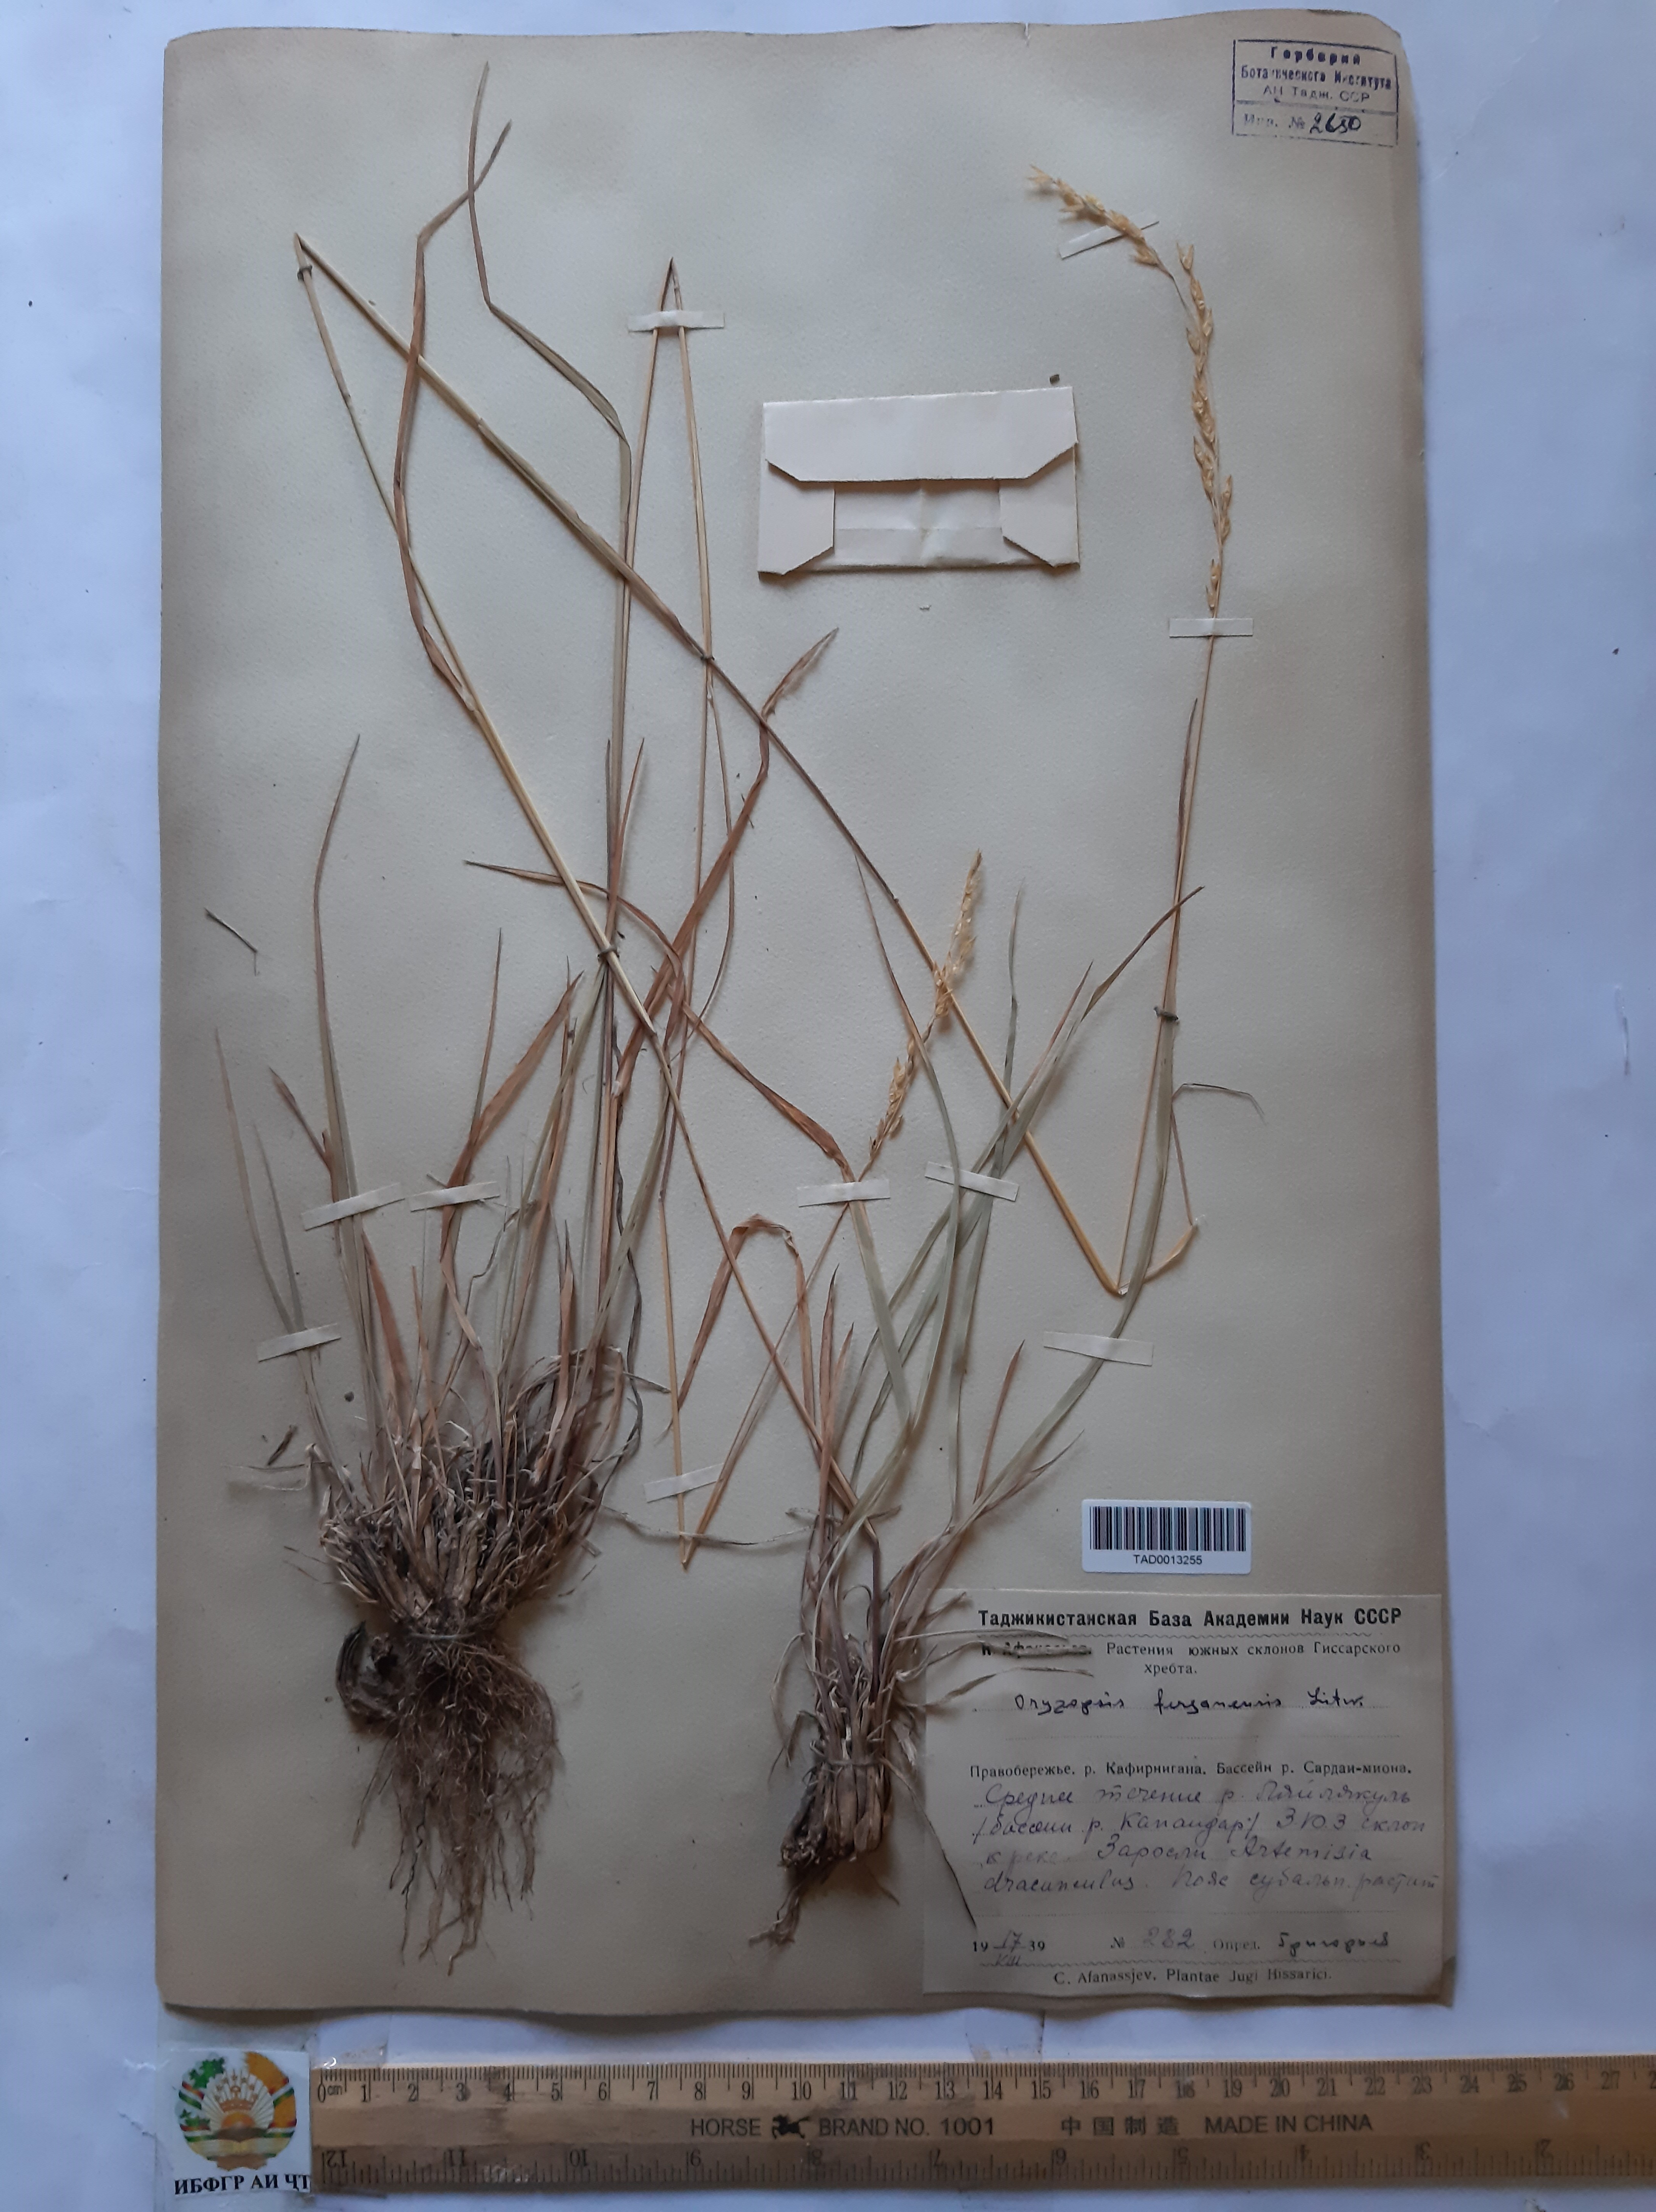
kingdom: Plantae
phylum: Tracheophyta
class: Liliopsida
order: Poales
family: Poaceae
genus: Piptatherum
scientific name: Piptatherum ferganense
